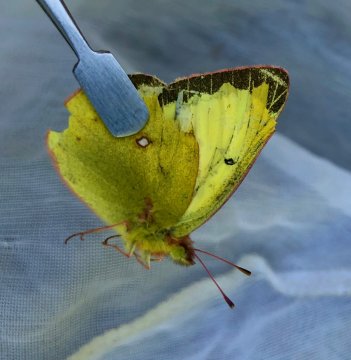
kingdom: Animalia
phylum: Arthropoda
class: Insecta
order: Lepidoptera
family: Pieridae
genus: Colias
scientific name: Colias gigantea
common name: Giant Sulphur
